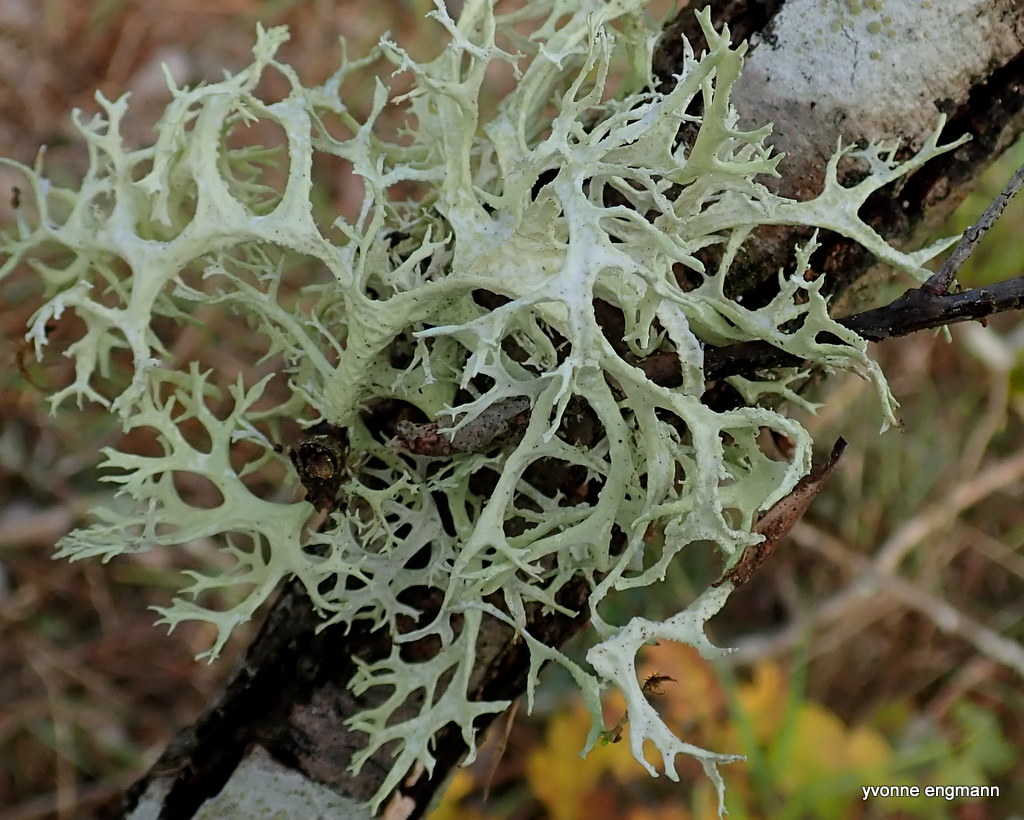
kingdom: Fungi
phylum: Ascomycota
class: Lecanoromycetes
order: Lecanorales
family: Parmeliaceae
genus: Evernia
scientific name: Evernia prunastri
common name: almindelig slåenlav
